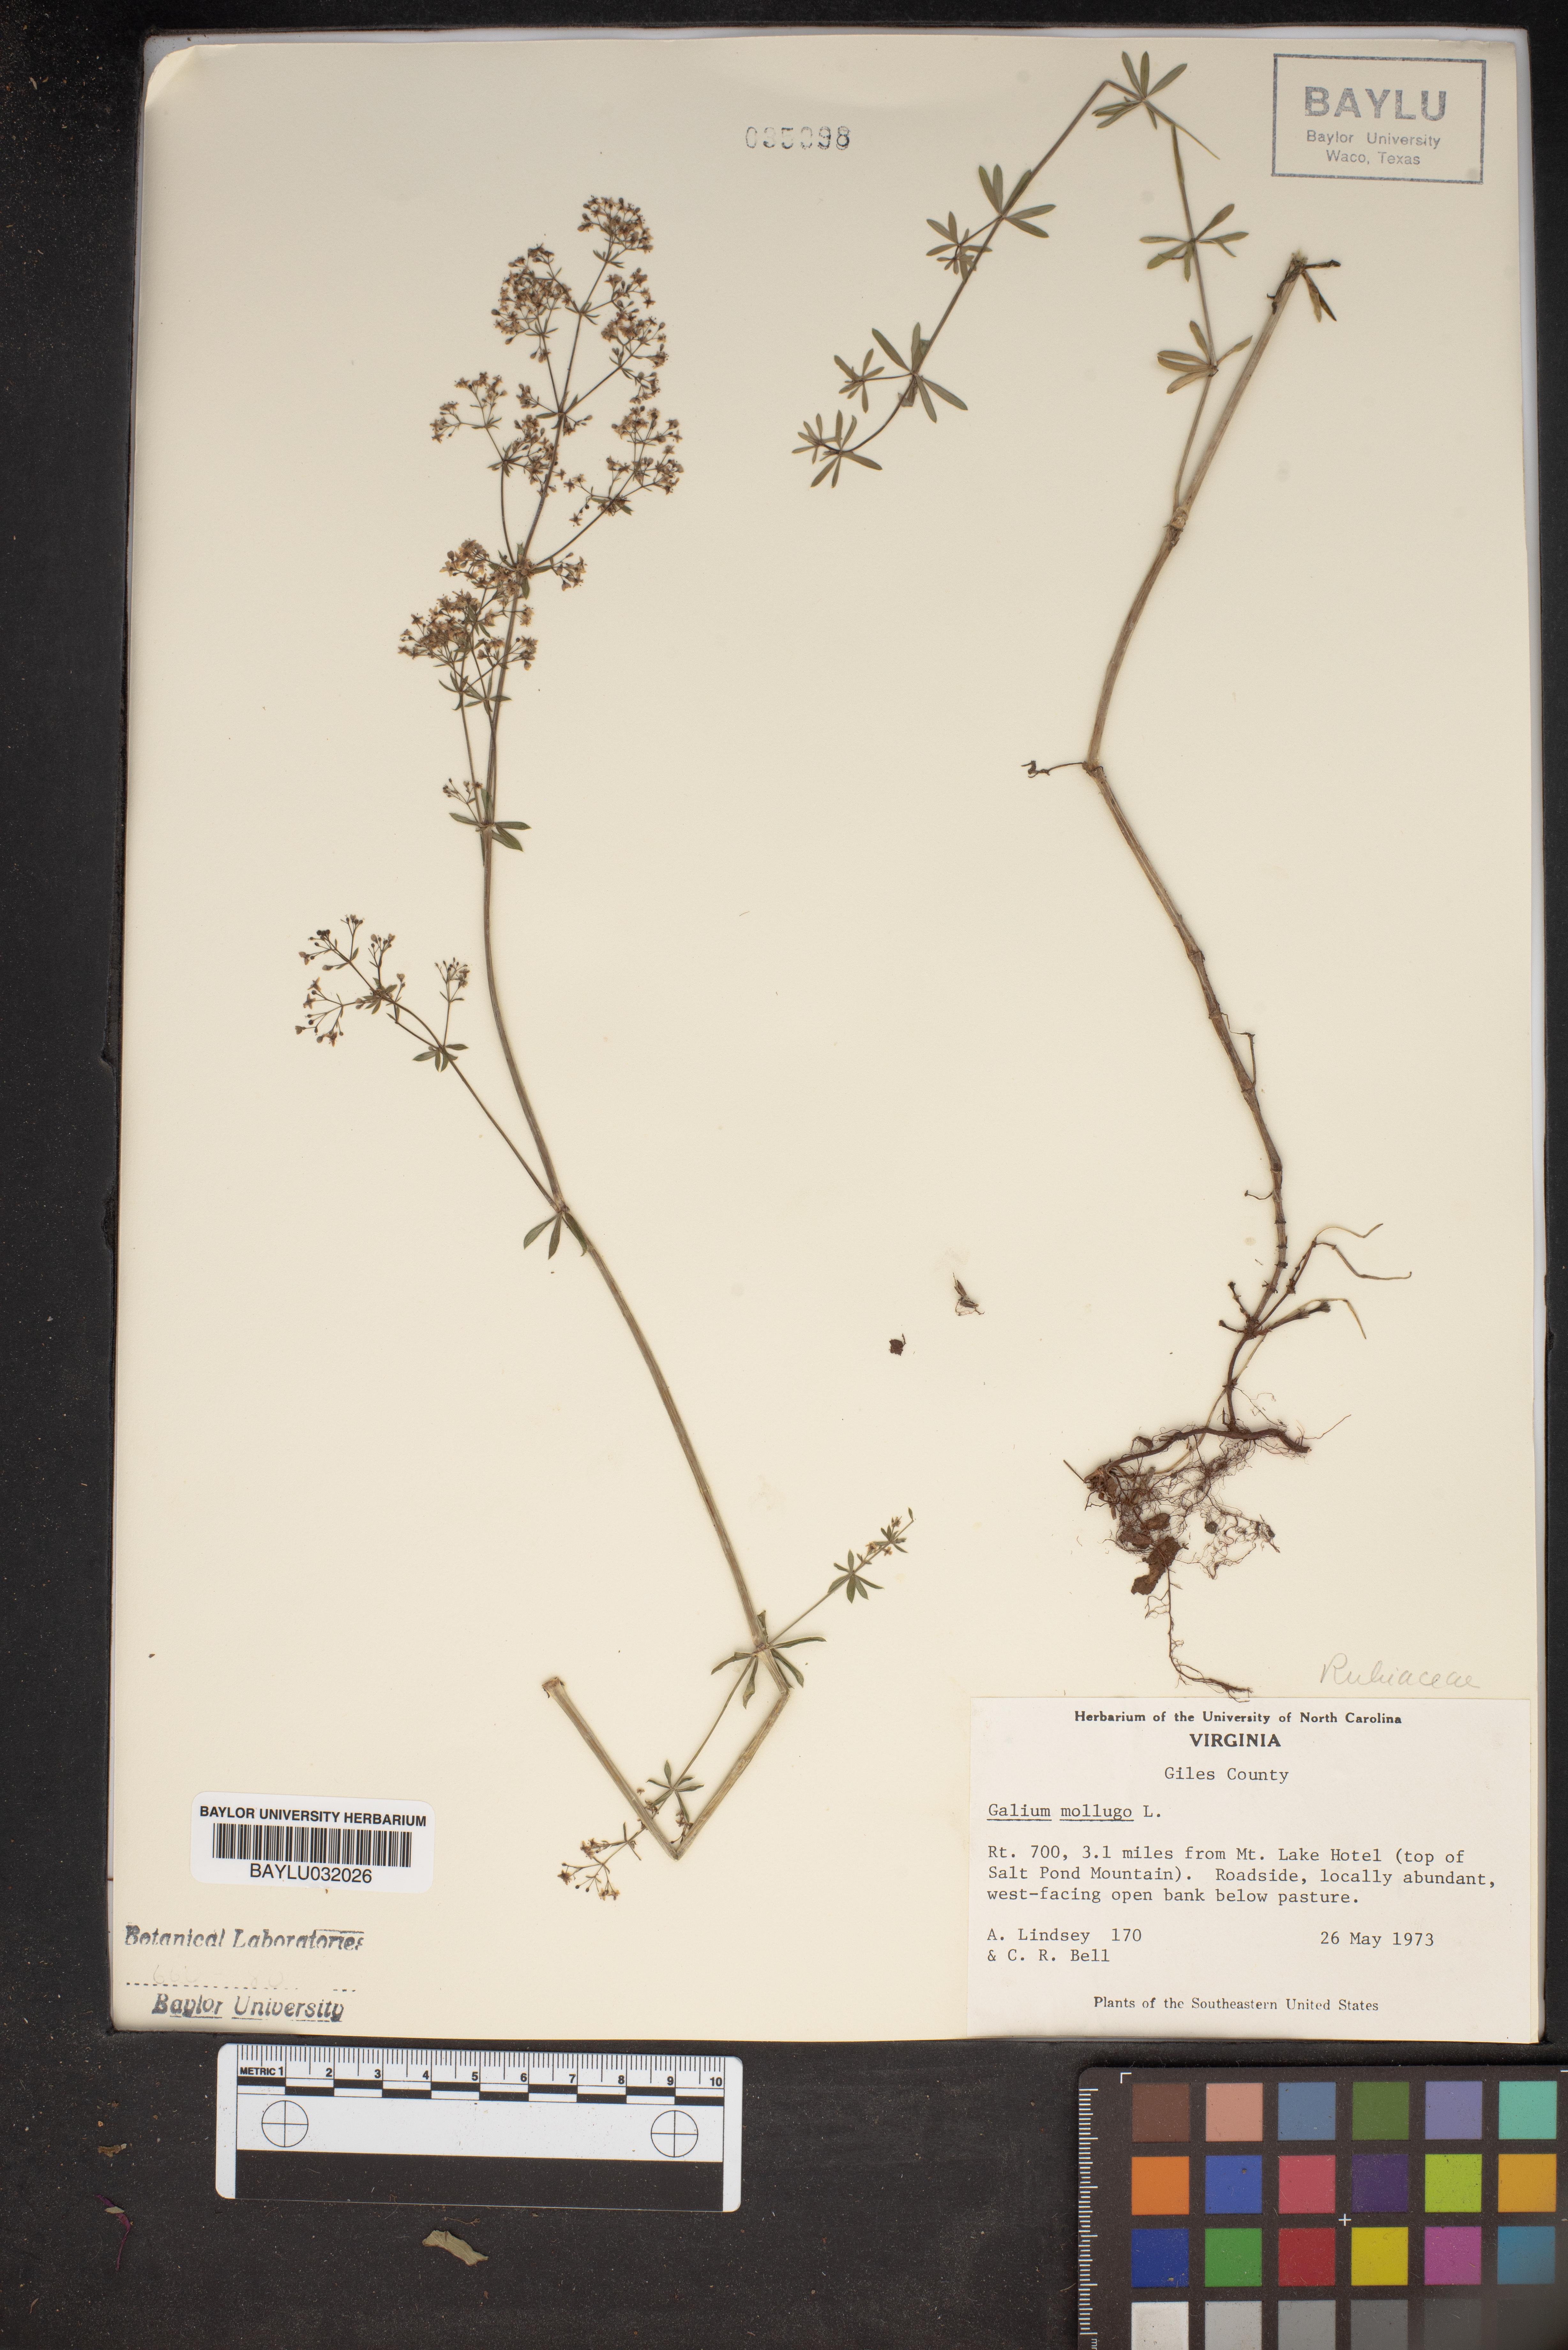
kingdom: Plantae
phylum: Tracheophyta
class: Magnoliopsida
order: Gentianales
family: Rubiaceae
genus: Galium
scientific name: Galium mollugo
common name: Hedge bedstraw
